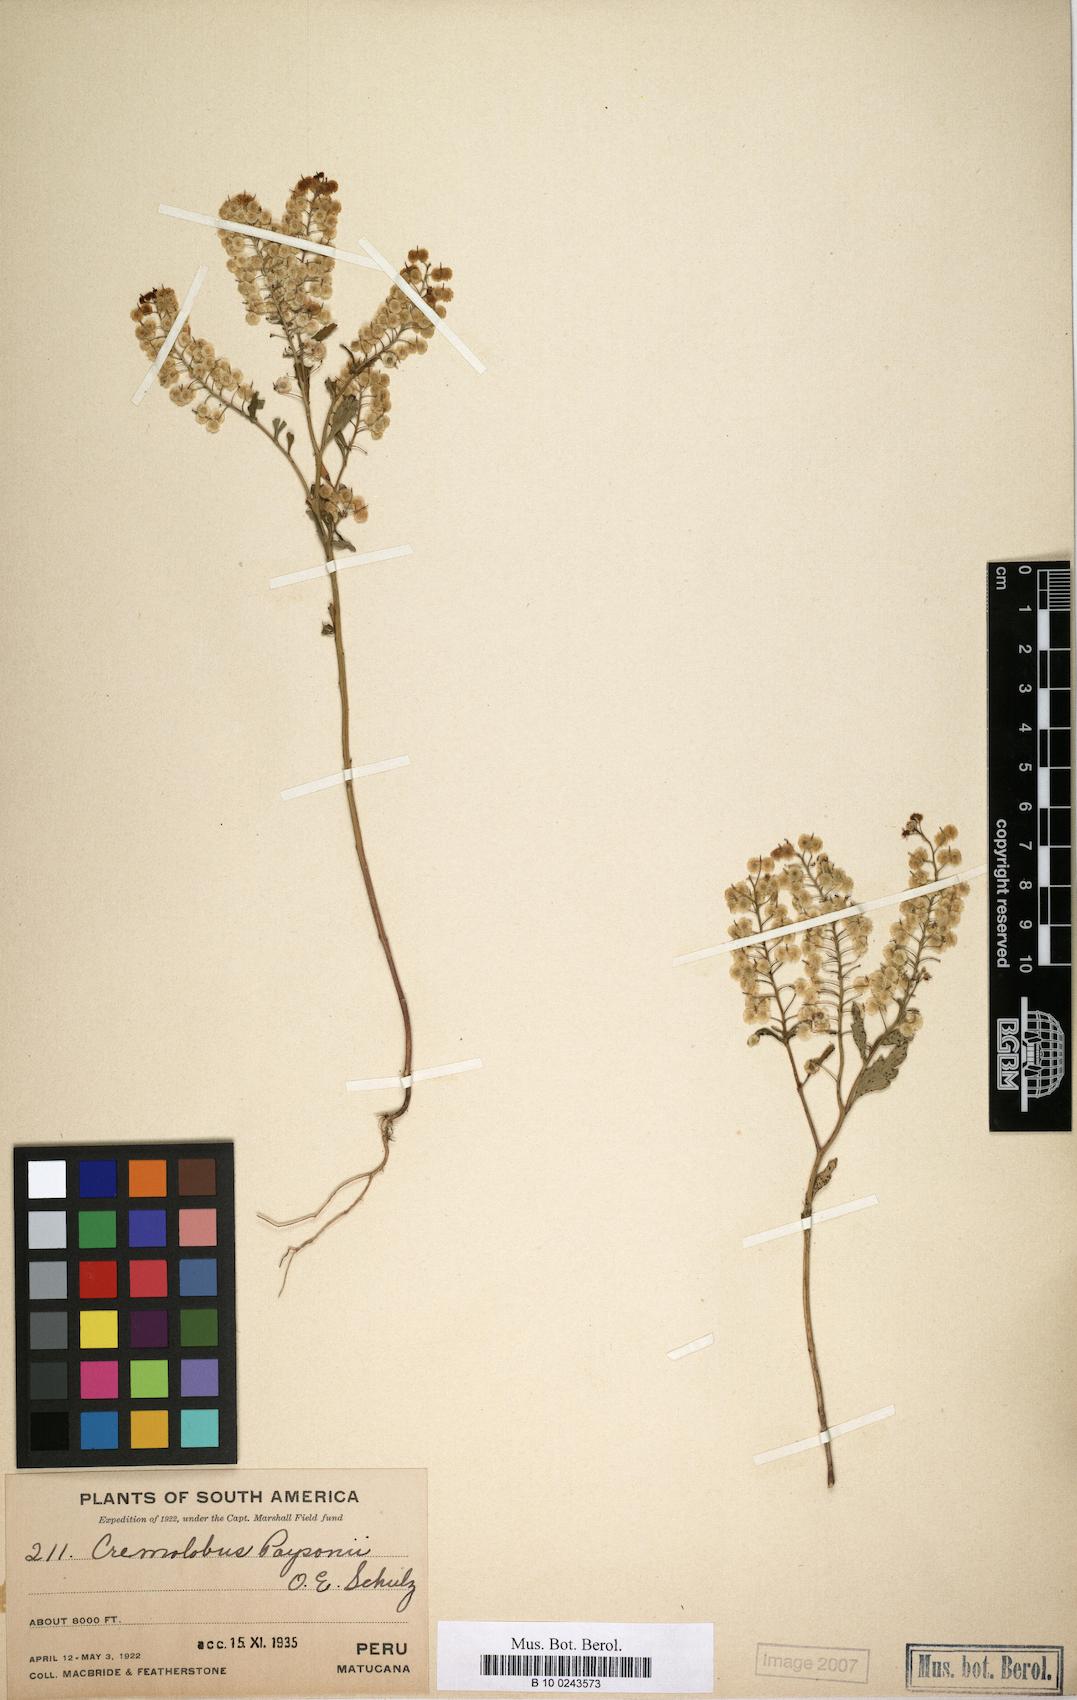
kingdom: Plantae
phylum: Tracheophyta
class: Magnoliopsida
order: Brassicales
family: Brassicaceae
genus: Cremolobus
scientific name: Cremolobus chilensis
